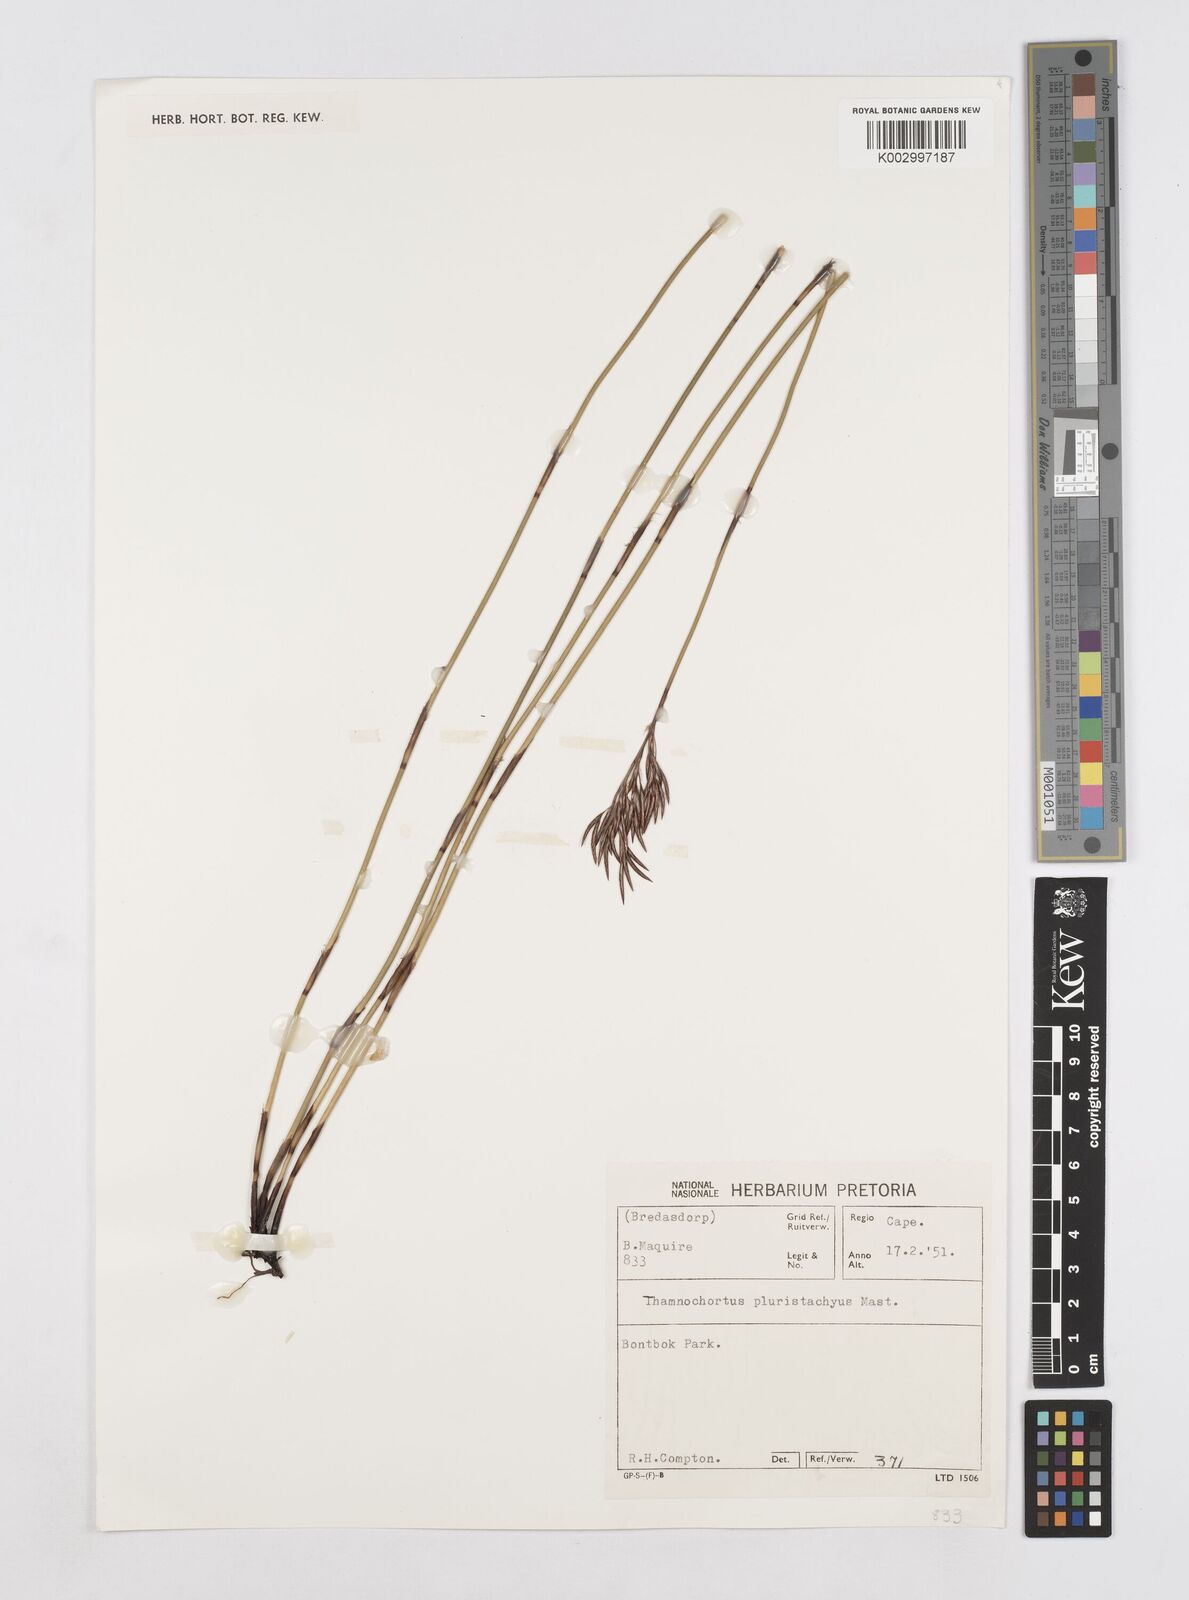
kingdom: Plantae
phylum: Tracheophyta
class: Liliopsida
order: Poales
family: Restionaceae
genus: Thamnochortus
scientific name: Thamnochortus pluristachyus
